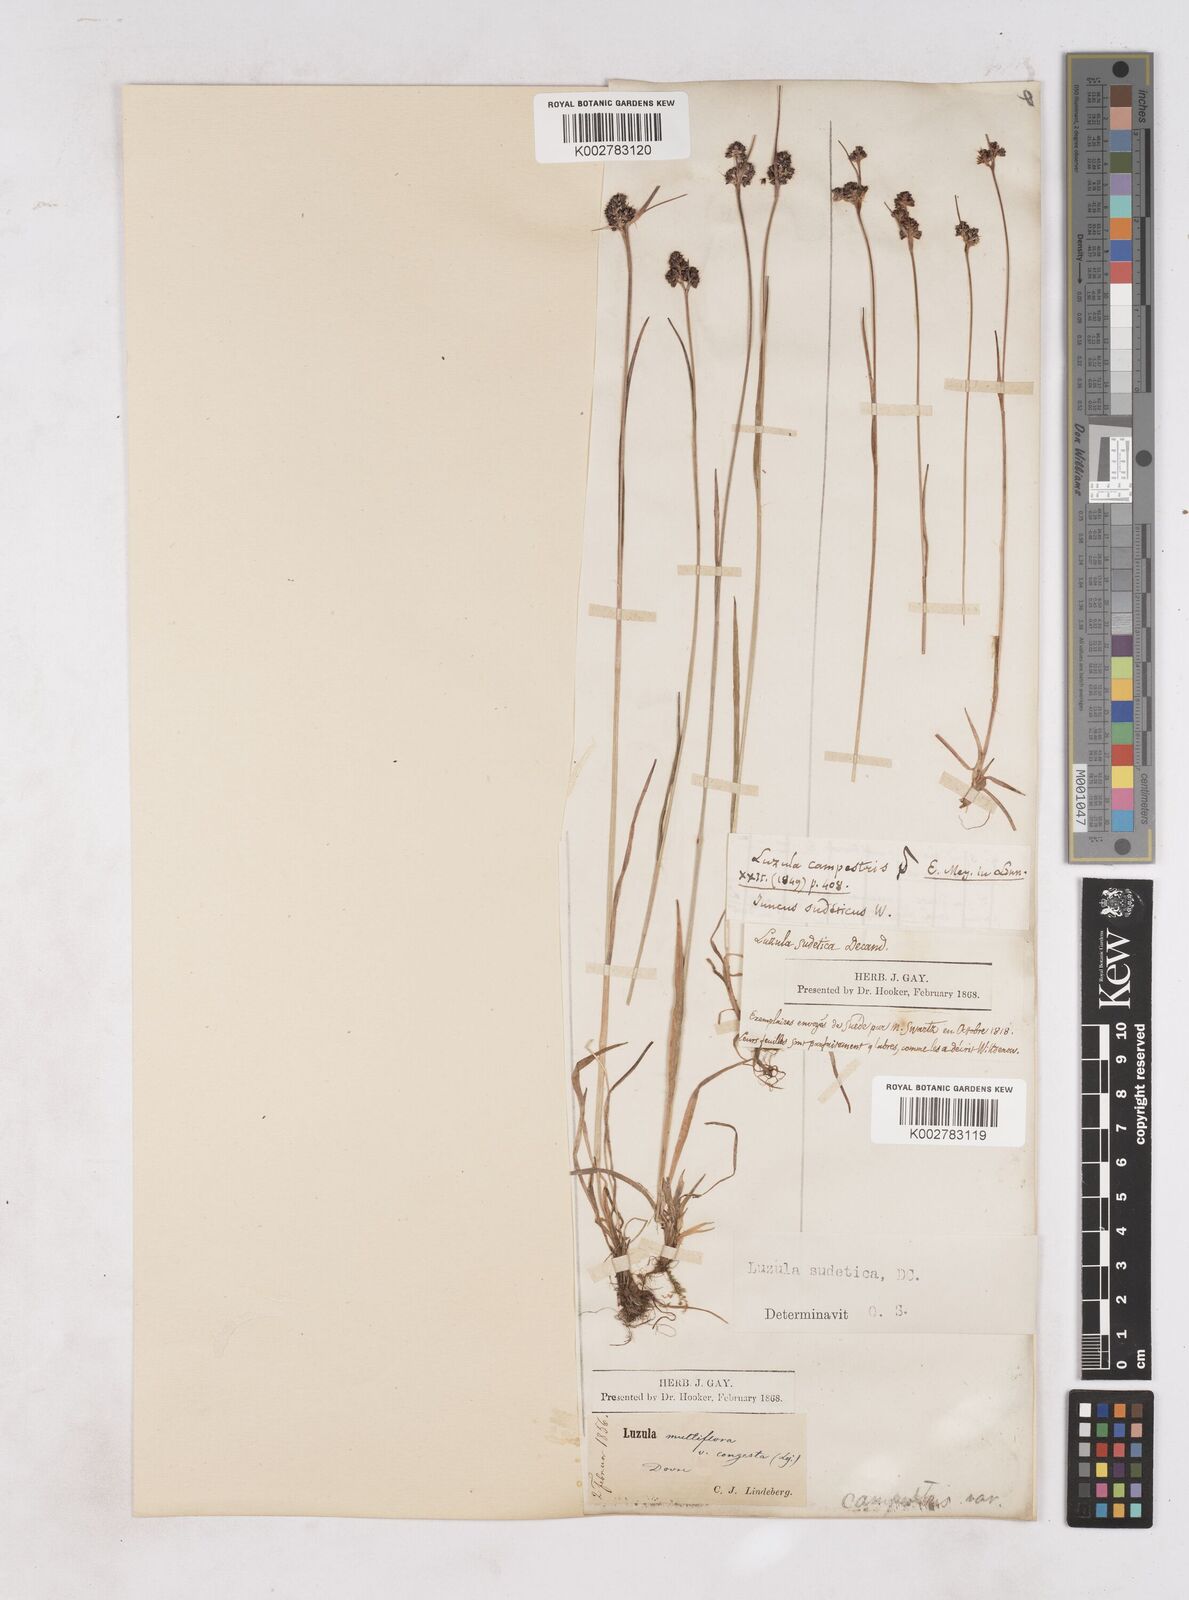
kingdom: Plantae
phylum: Tracheophyta
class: Liliopsida
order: Poales
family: Juncaceae
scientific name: Juncaceae
